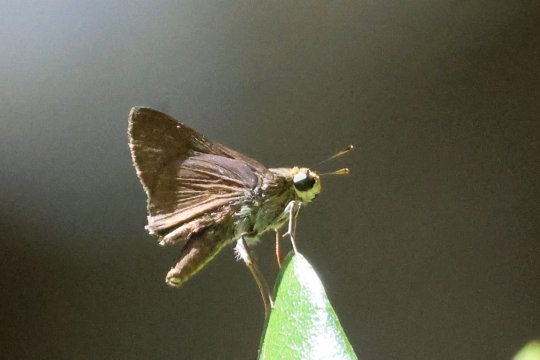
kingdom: Animalia
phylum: Arthropoda
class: Insecta
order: Lepidoptera
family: Hesperiidae
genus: Euphyes
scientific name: Euphyes vestris
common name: Dun Skipper
